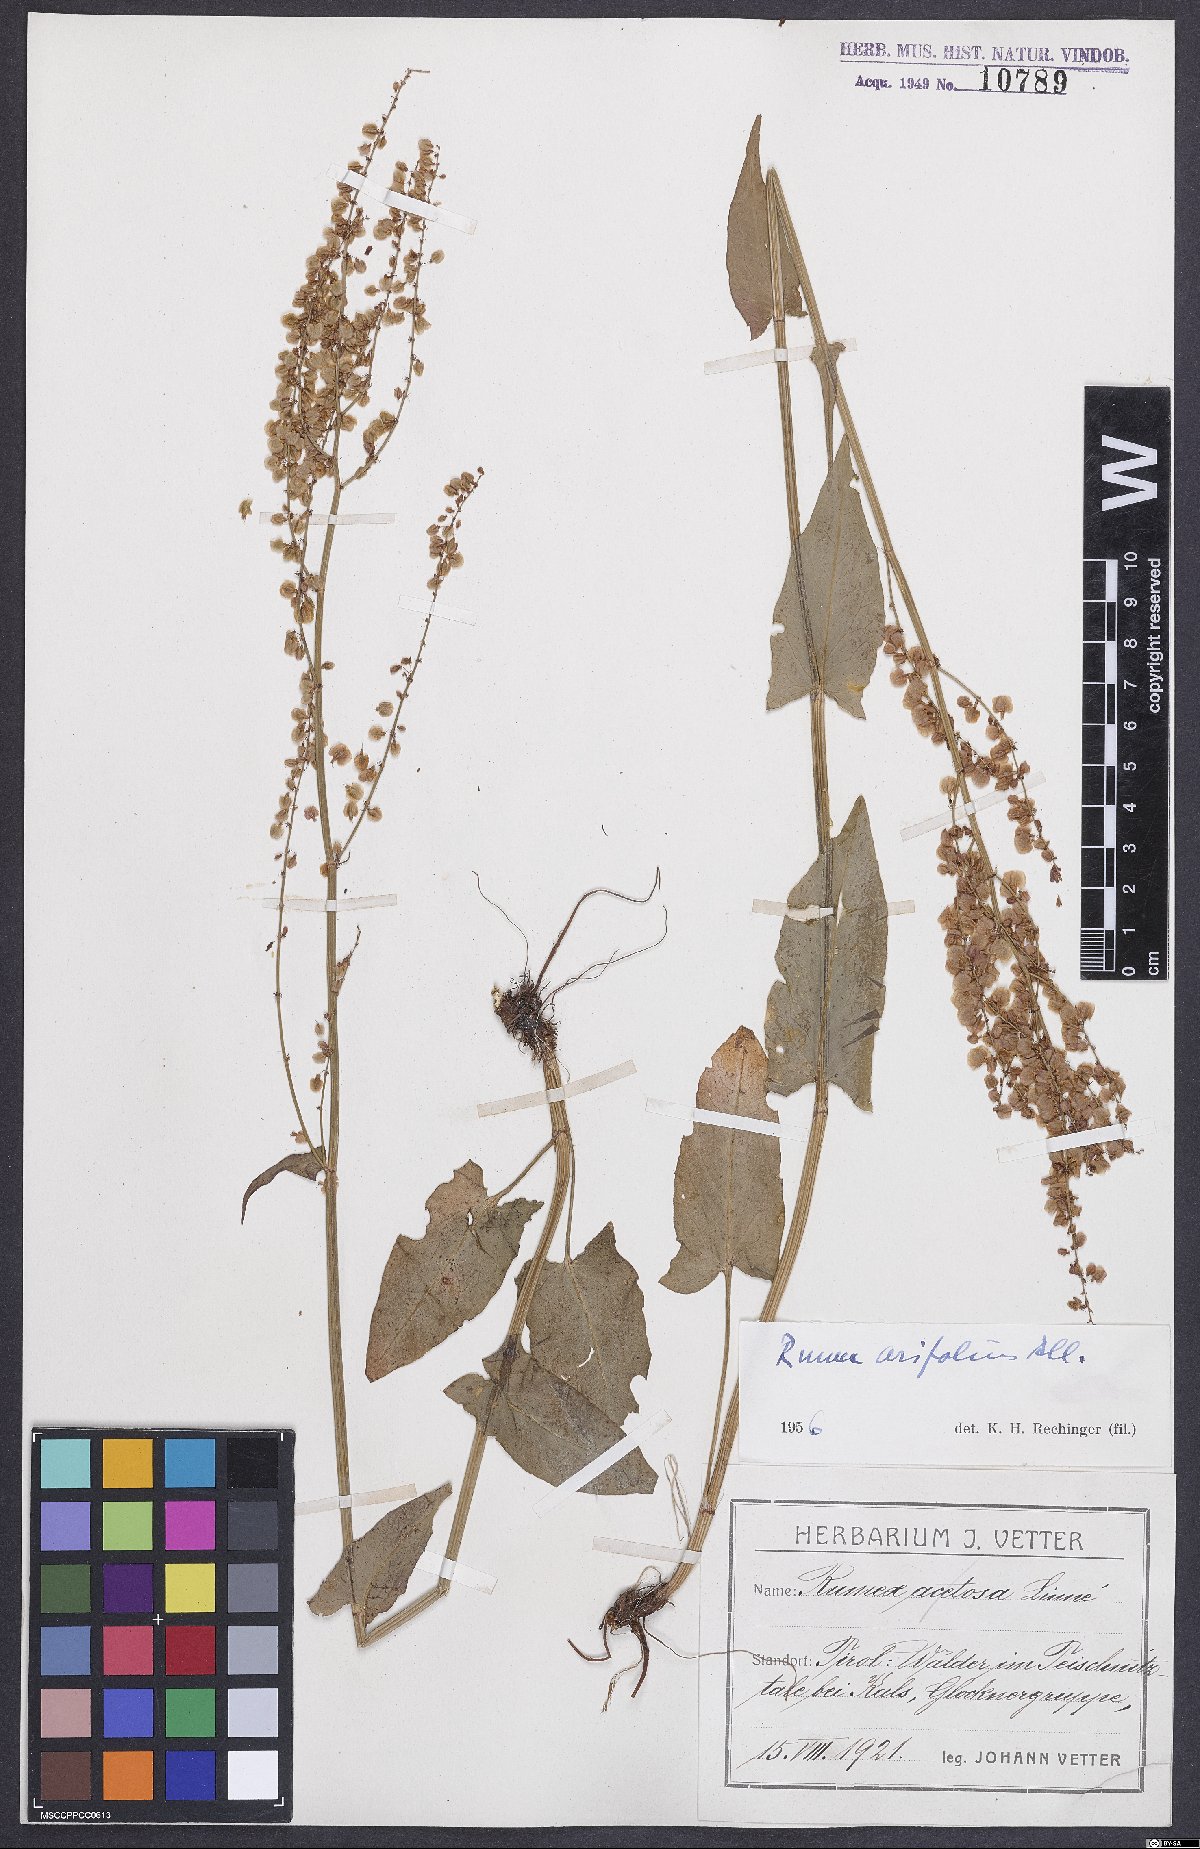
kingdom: Plantae
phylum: Tracheophyta
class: Magnoliopsida
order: Caryophyllales
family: Polygonaceae
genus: Rumex
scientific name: Rumex arifolius
